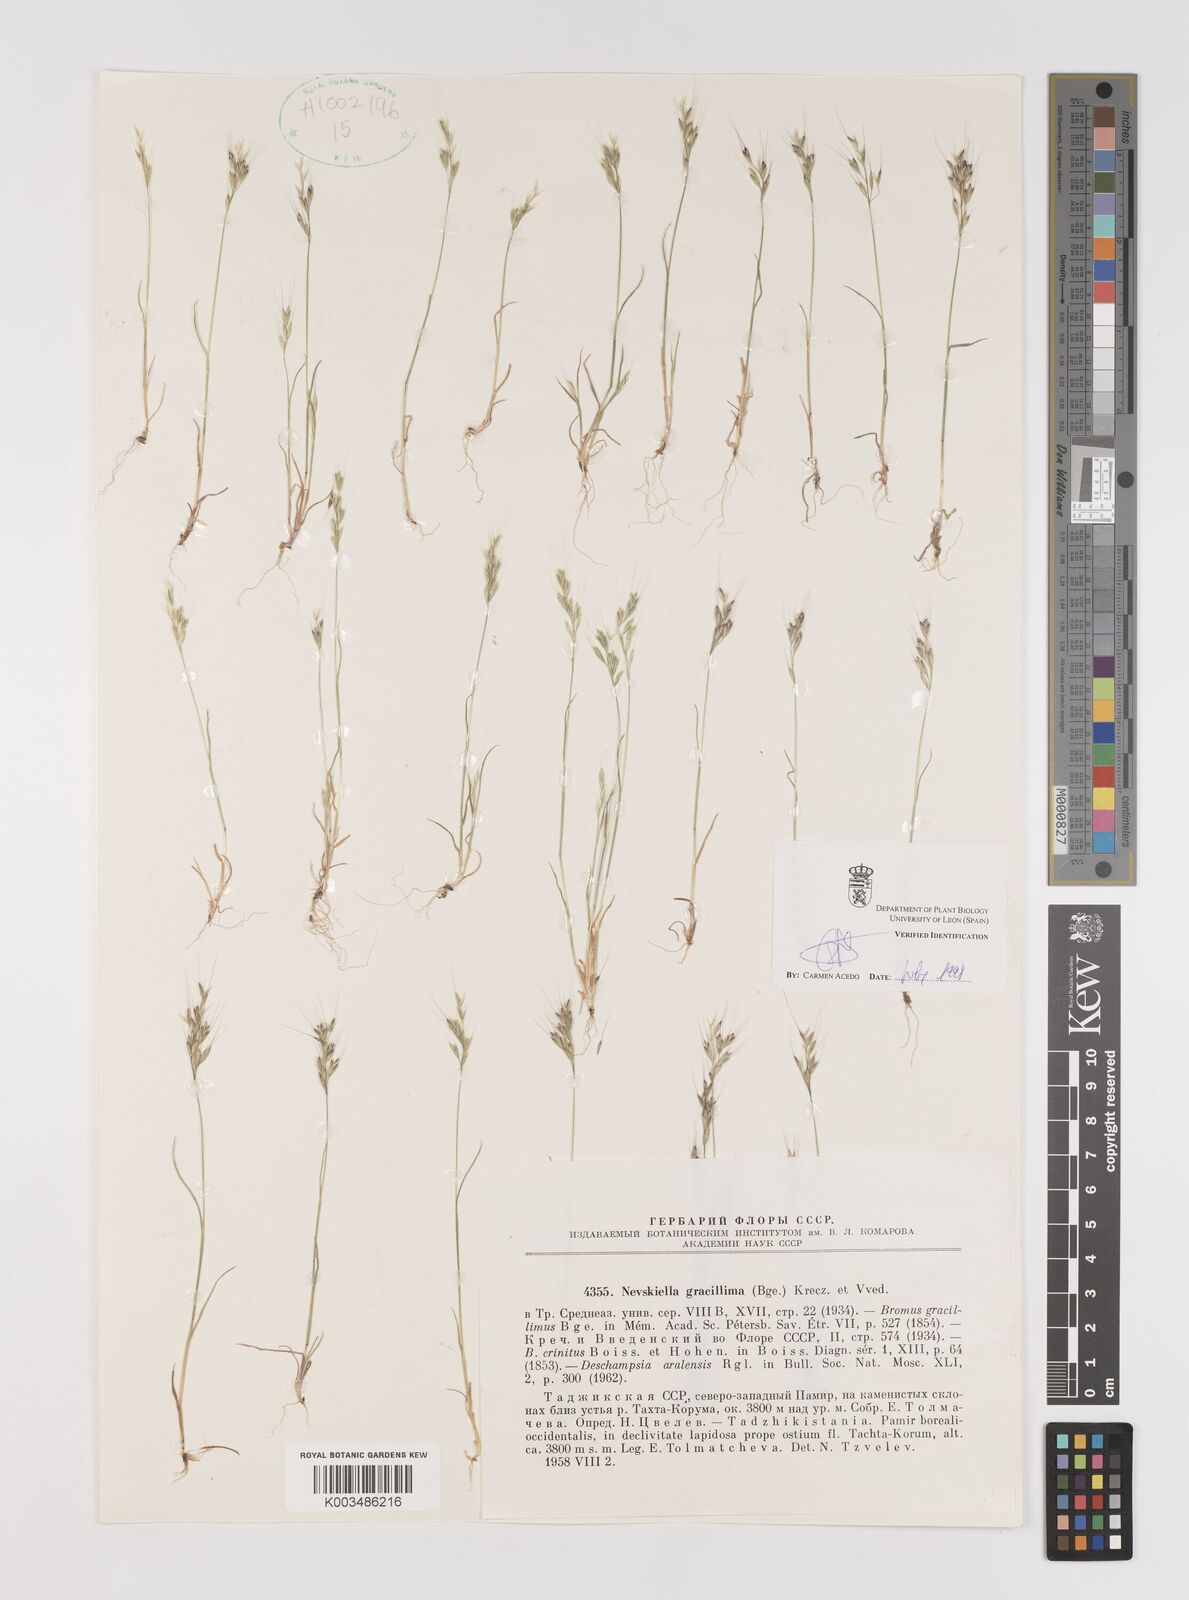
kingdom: Plantae
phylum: Tracheophyta
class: Liliopsida
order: Poales
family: Poaceae
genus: Bromus
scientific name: Bromus gracillimus
